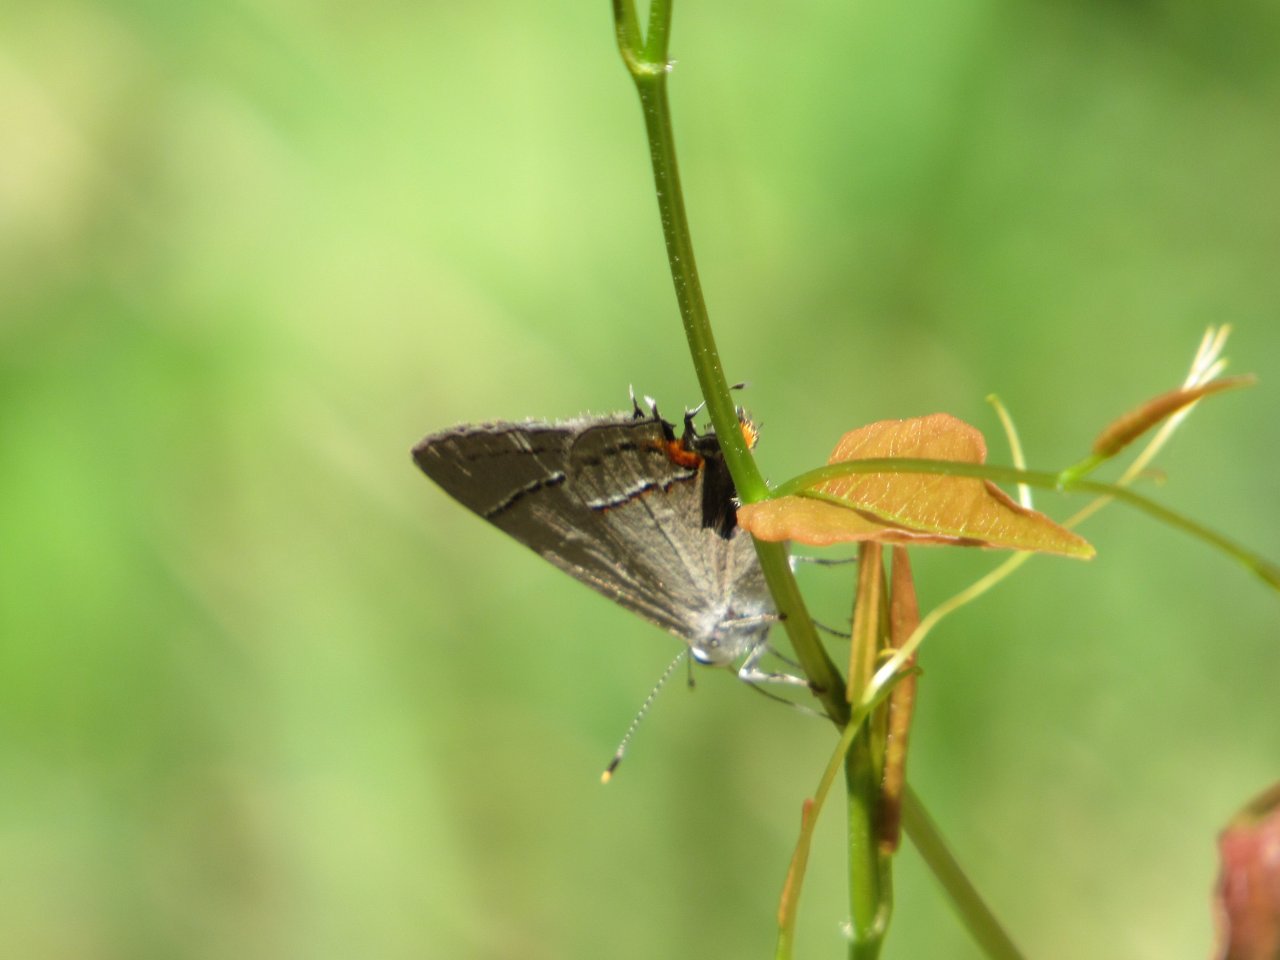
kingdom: Animalia
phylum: Arthropoda
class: Insecta
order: Lepidoptera
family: Lycaenidae
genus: Strymon
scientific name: Strymon melinus
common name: Gray Hairstreak
